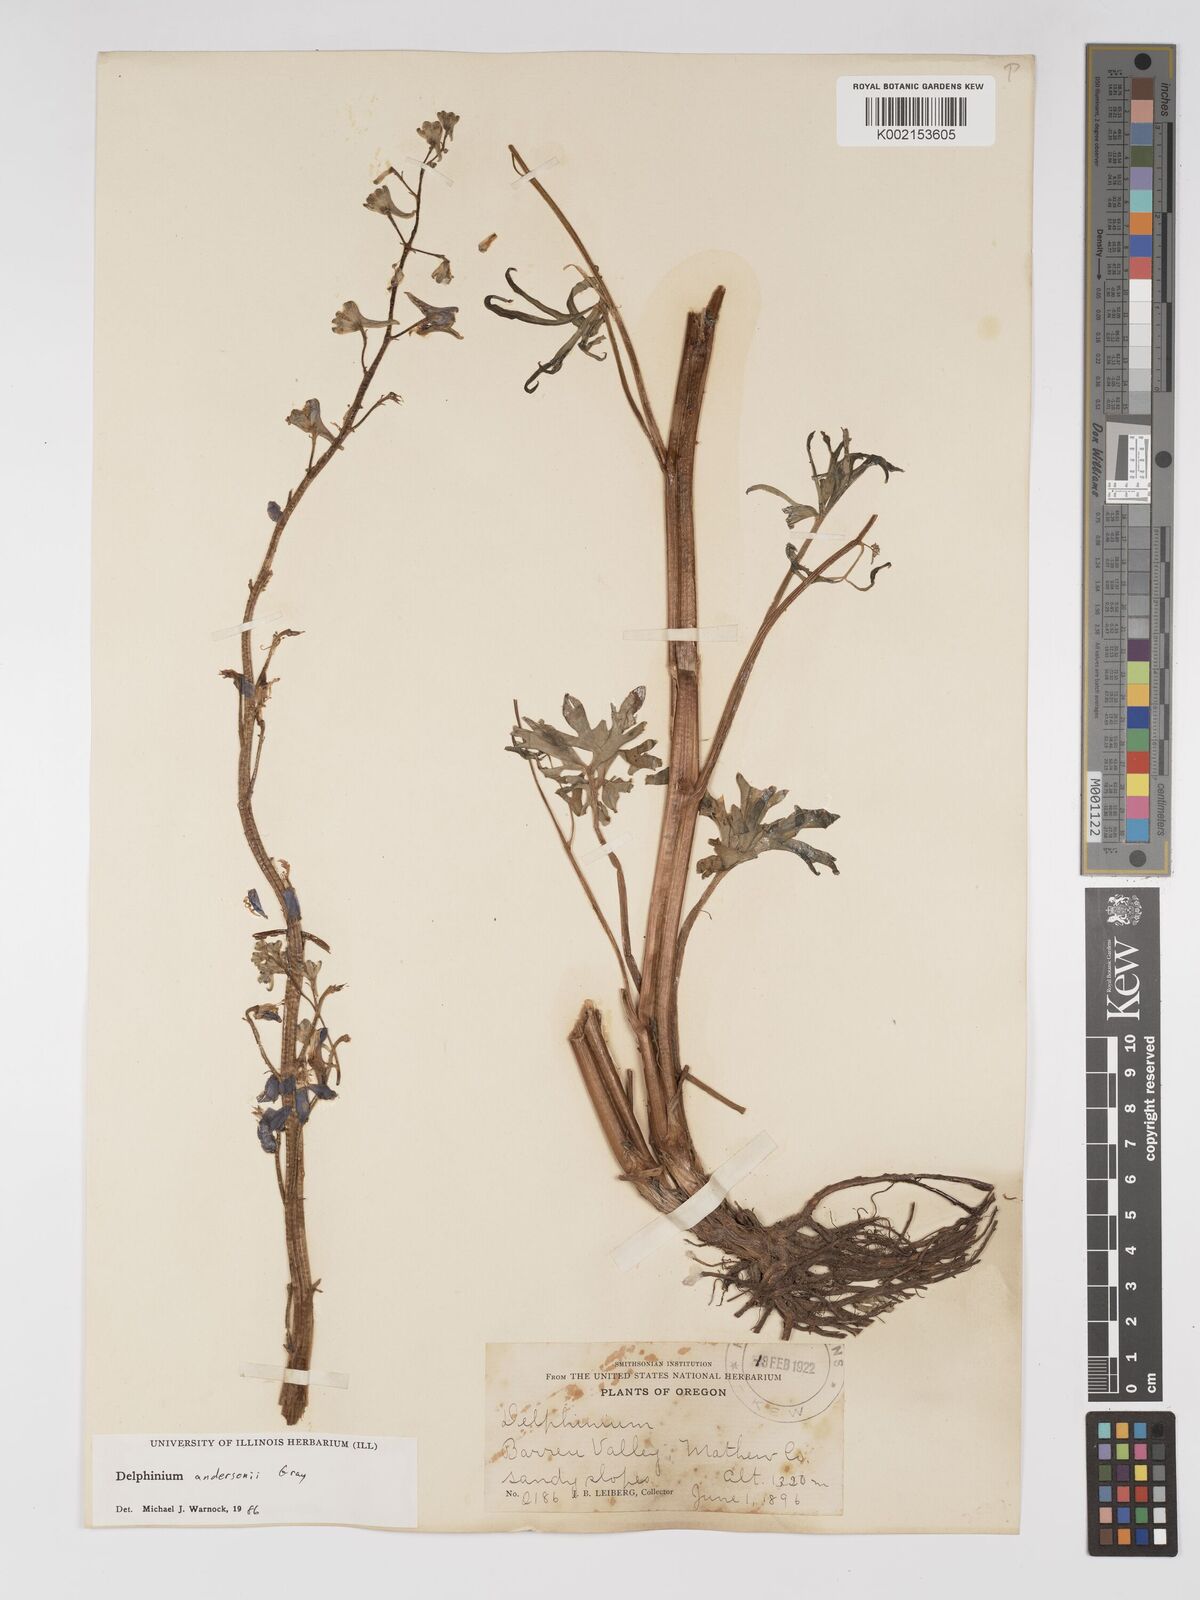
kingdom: Plantae
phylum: Tracheophyta
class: Magnoliopsida
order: Ranunculales
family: Ranunculaceae
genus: Delphinium
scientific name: Delphinium andersonii
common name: Anderson's larkspur
